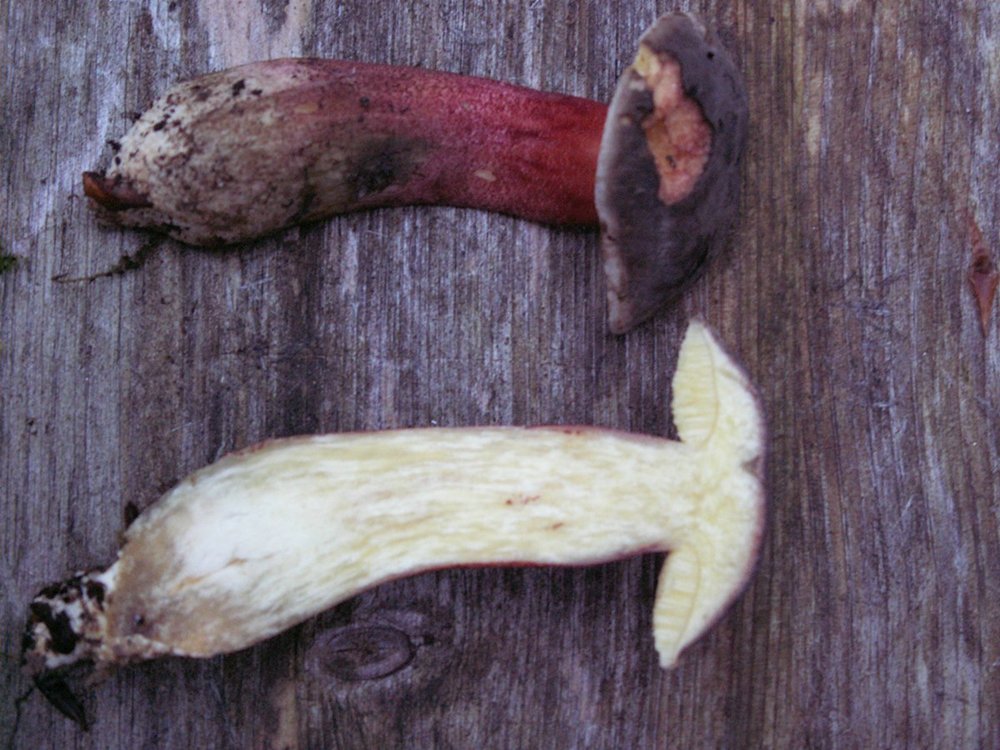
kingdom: Fungi
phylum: Basidiomycota
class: Agaricomycetes
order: Boletales
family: Boletaceae
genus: Xerocomellus
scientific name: Xerocomellus pruinatus
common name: dugget rørhat
